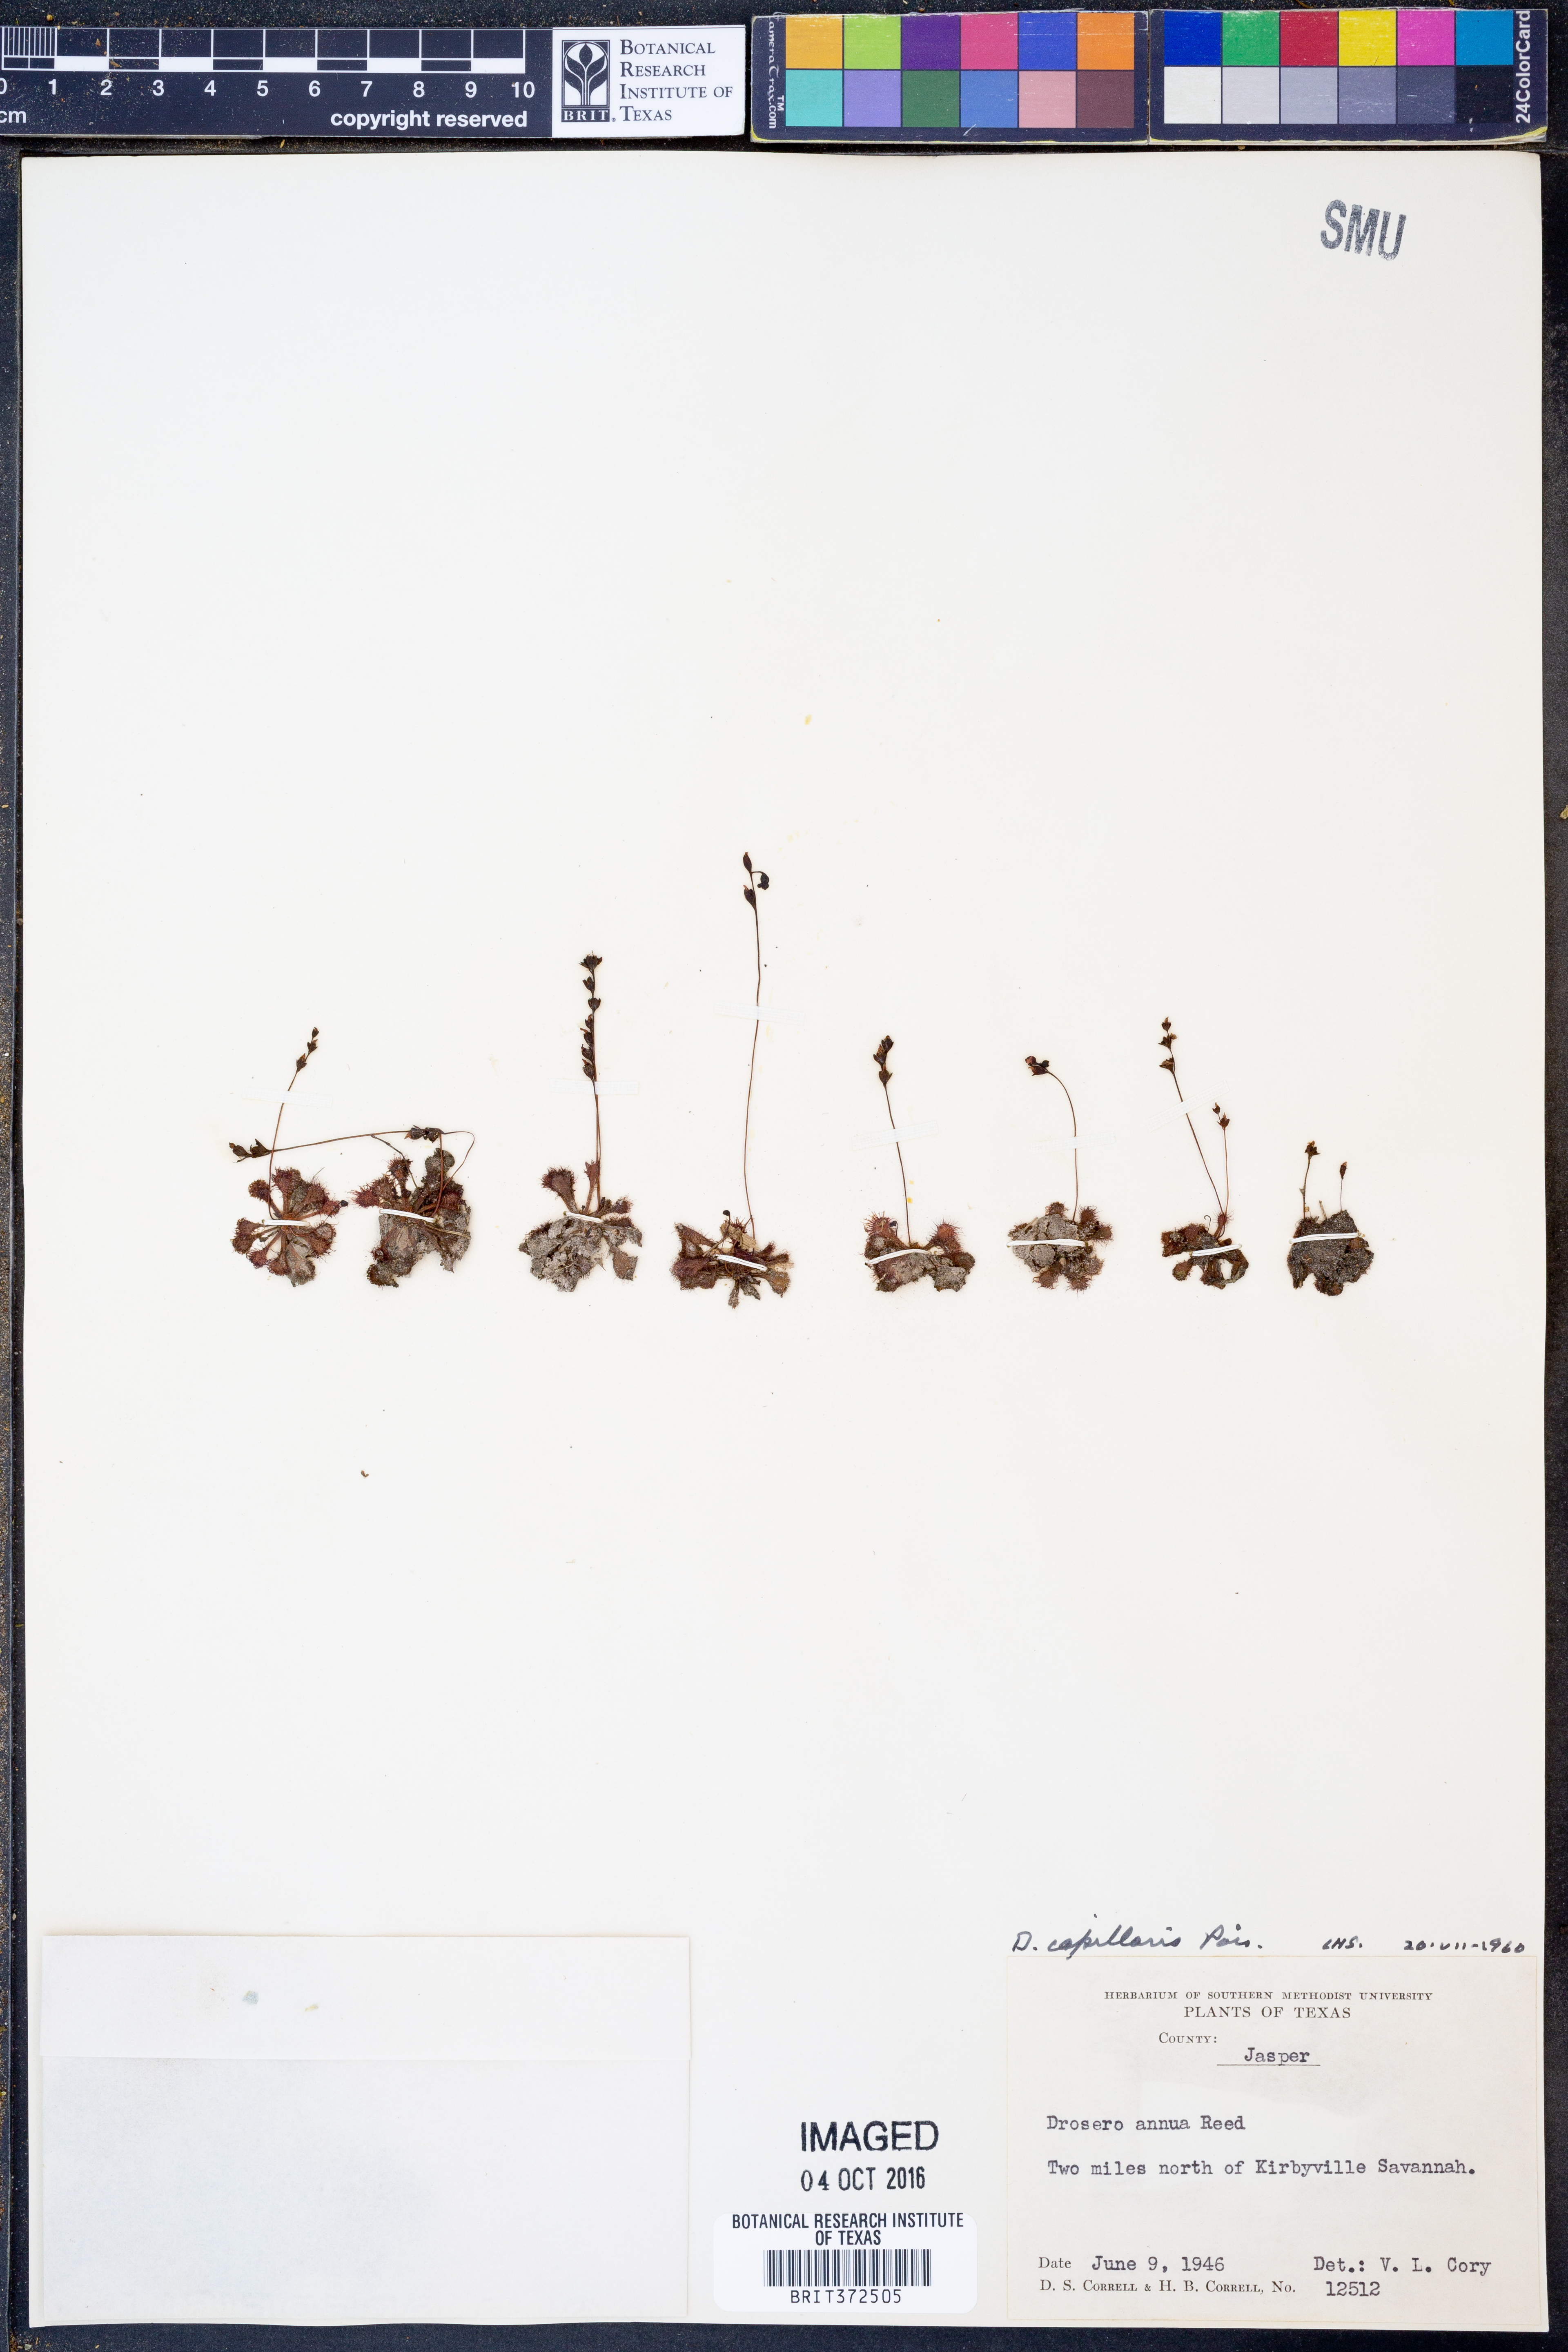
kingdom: Plantae
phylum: Tracheophyta
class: Magnoliopsida
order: Caryophyllales
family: Droseraceae
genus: Drosera
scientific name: Drosera capillaris
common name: Pink sundew
